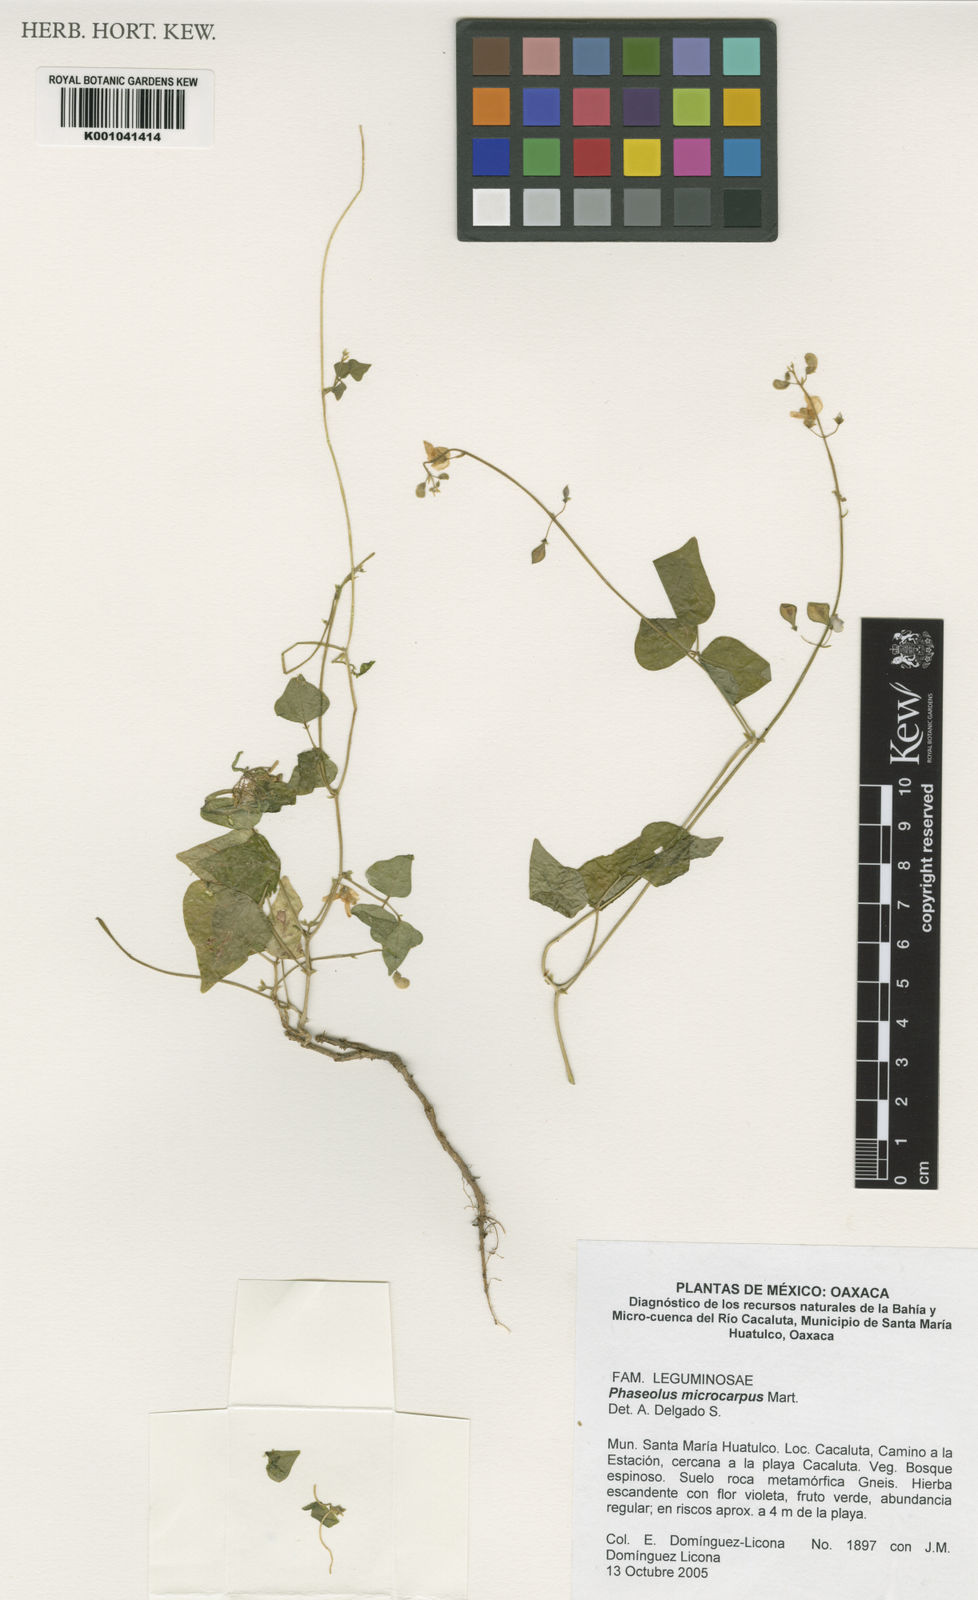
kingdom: Plantae
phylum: Tracheophyta
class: Magnoliopsida
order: Fabales
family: Fabaceae
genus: Phaseolus
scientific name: Phaseolus microcarpus
